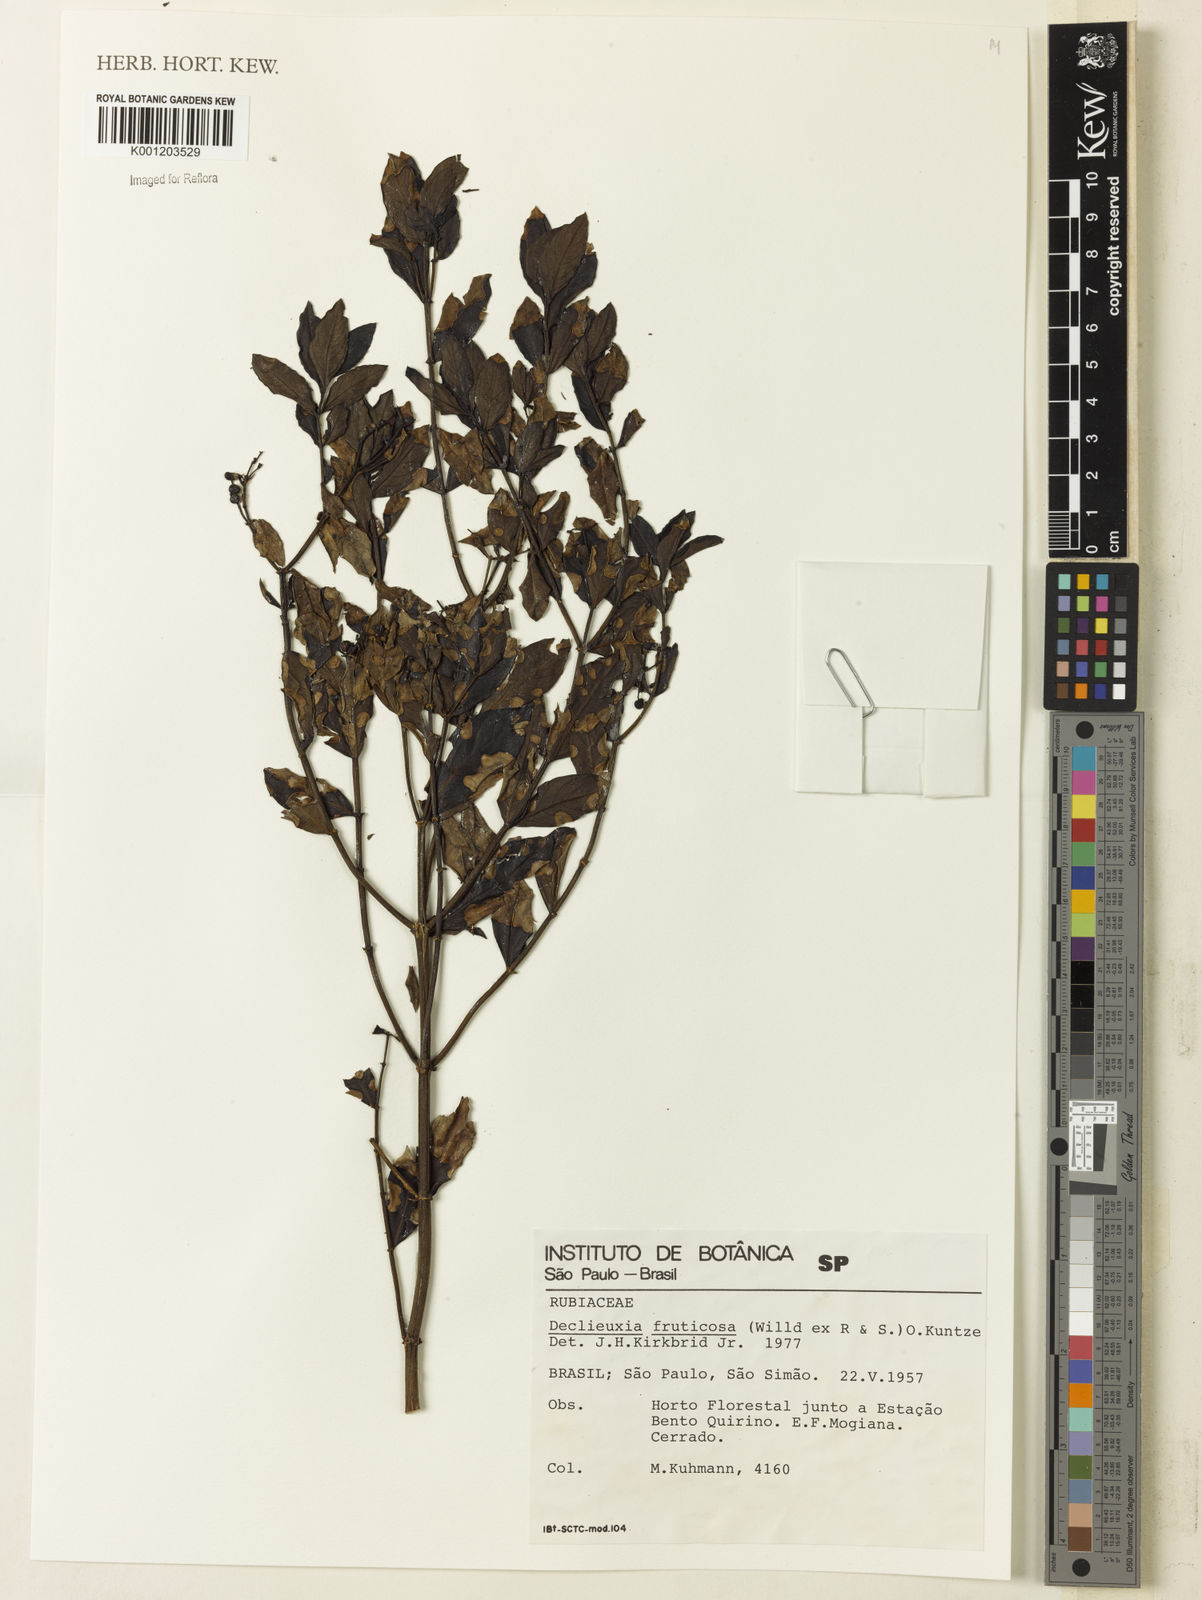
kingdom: Plantae
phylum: Tracheophyta
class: Magnoliopsida
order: Gentianales
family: Rubiaceae
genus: Declieuxia
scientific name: Declieuxia fruticosa
